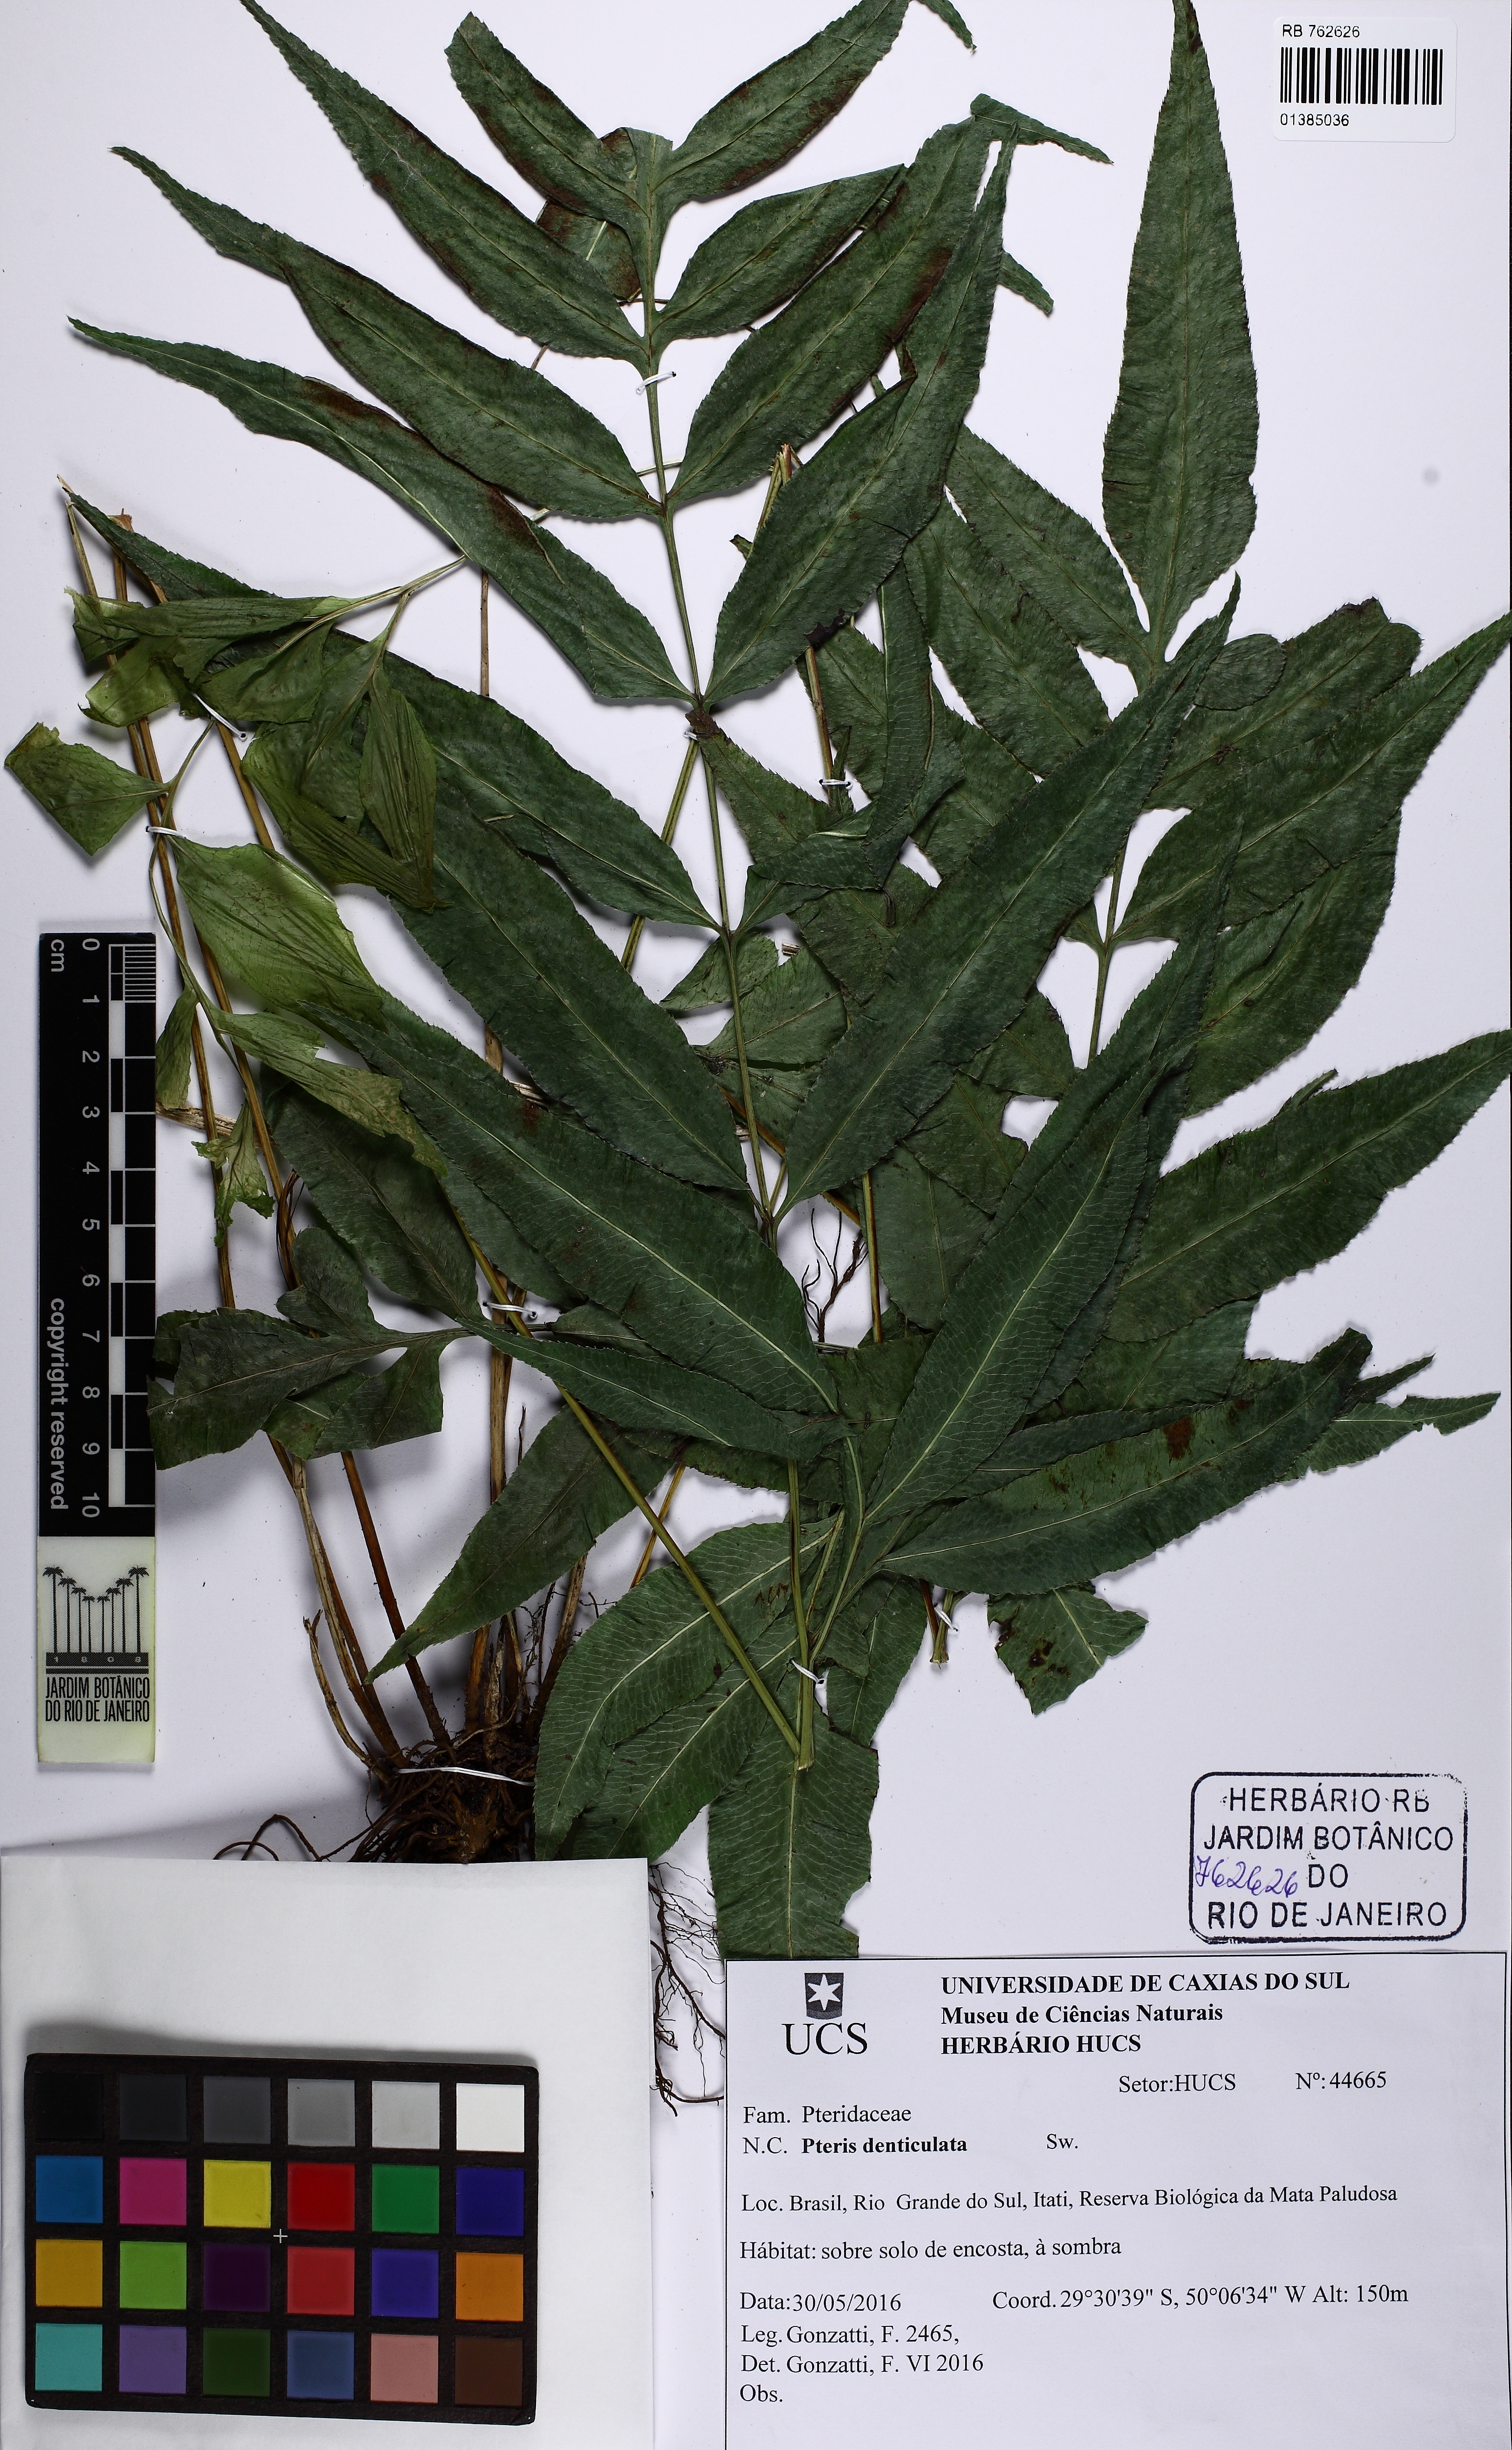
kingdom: Plantae
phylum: Tracheophyta
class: Polypodiopsida
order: Polypodiales
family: Pteridaceae
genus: Pteris
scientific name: Pteris denticulata
